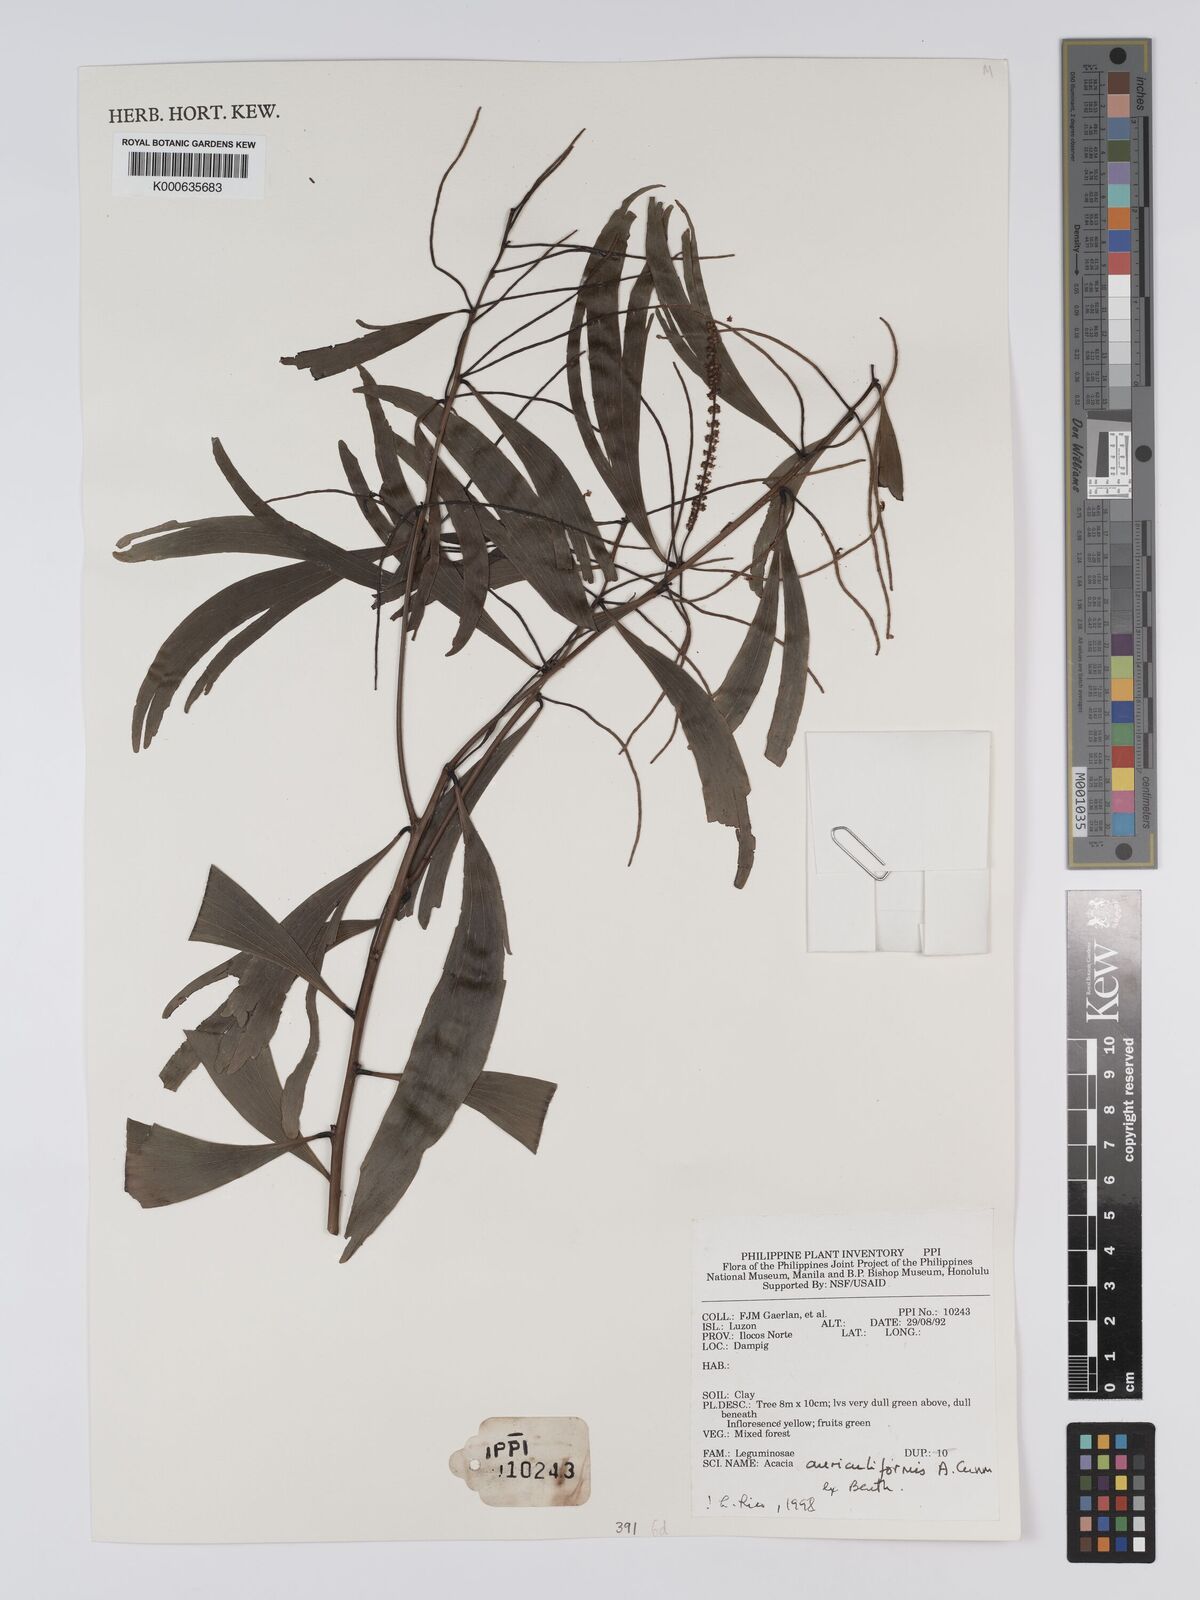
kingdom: Plantae
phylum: Tracheophyta
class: Magnoliopsida
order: Fabales
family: Fabaceae
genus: Acacia
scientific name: Acacia auriculiformis
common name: Earleaf acacia
